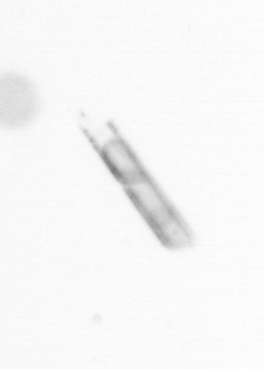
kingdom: Chromista
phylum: Ochrophyta
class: Bacillariophyceae
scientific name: Bacillariophyceae
